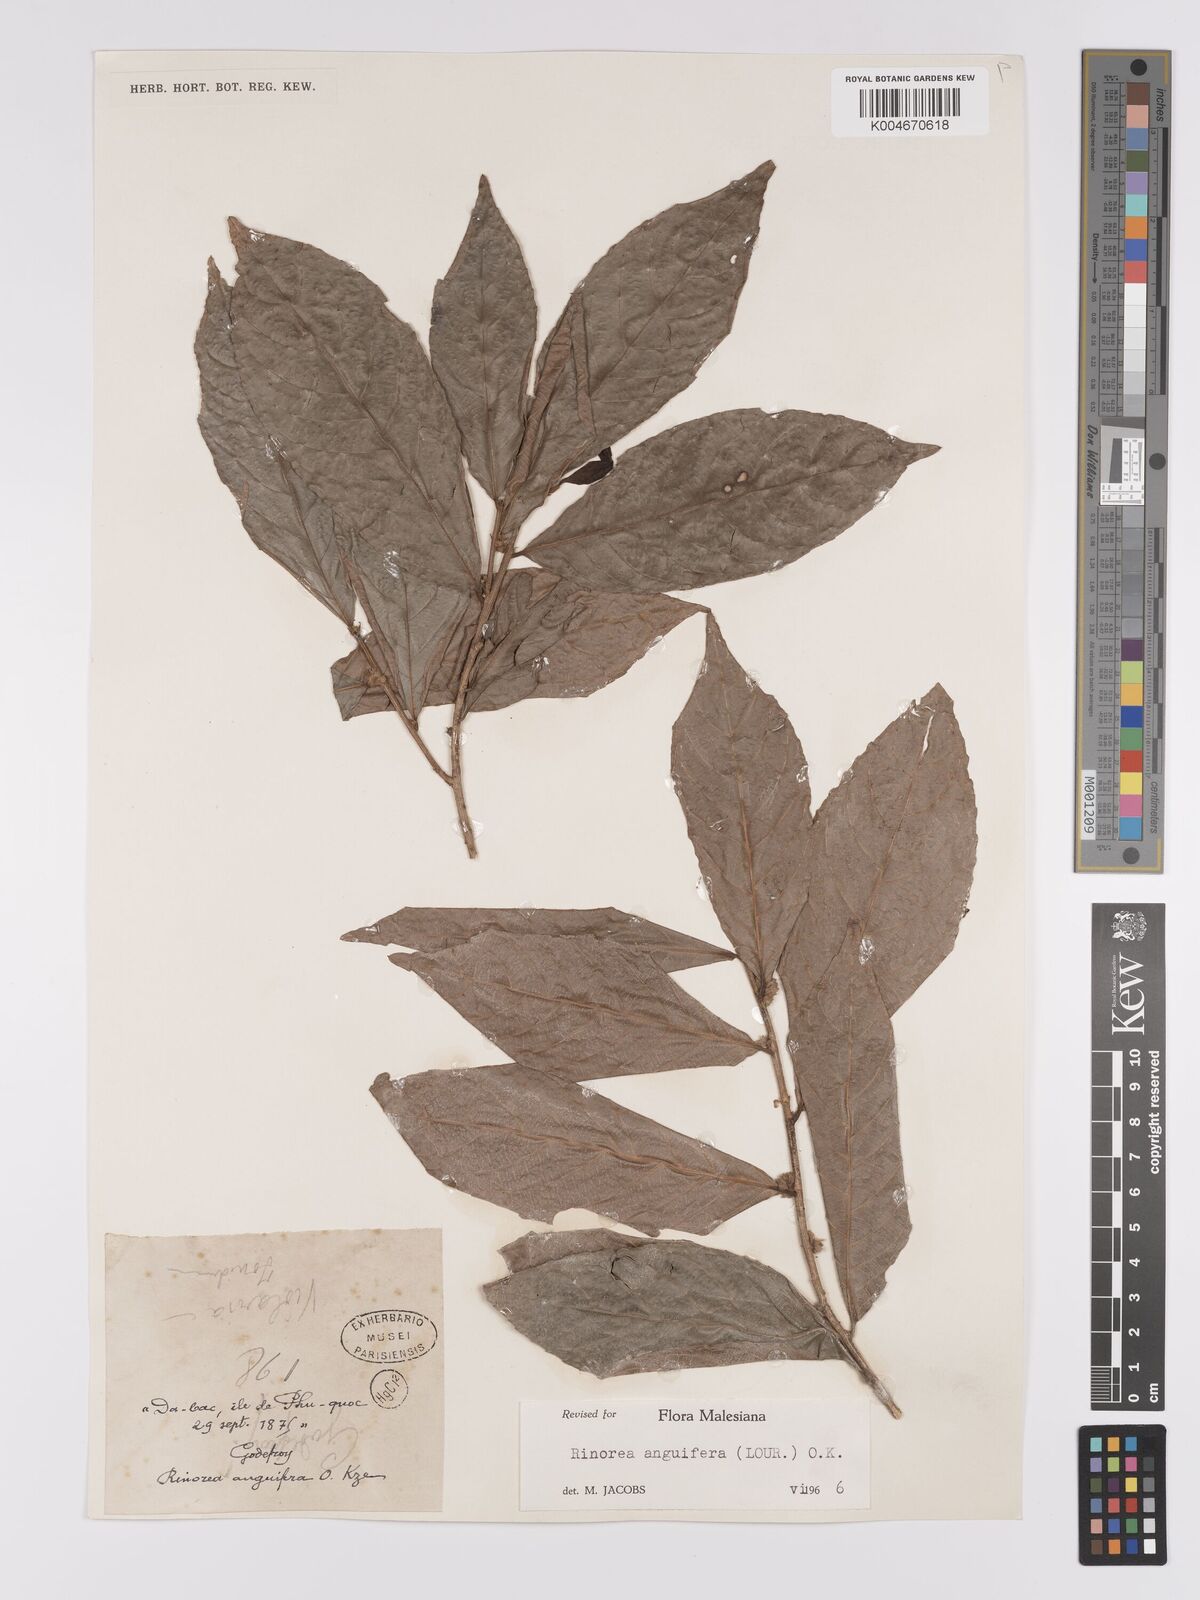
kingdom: Plantae
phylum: Tracheophyta
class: Magnoliopsida
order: Malpighiales
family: Violaceae
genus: Rinorea
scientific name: Rinorea anguifera
